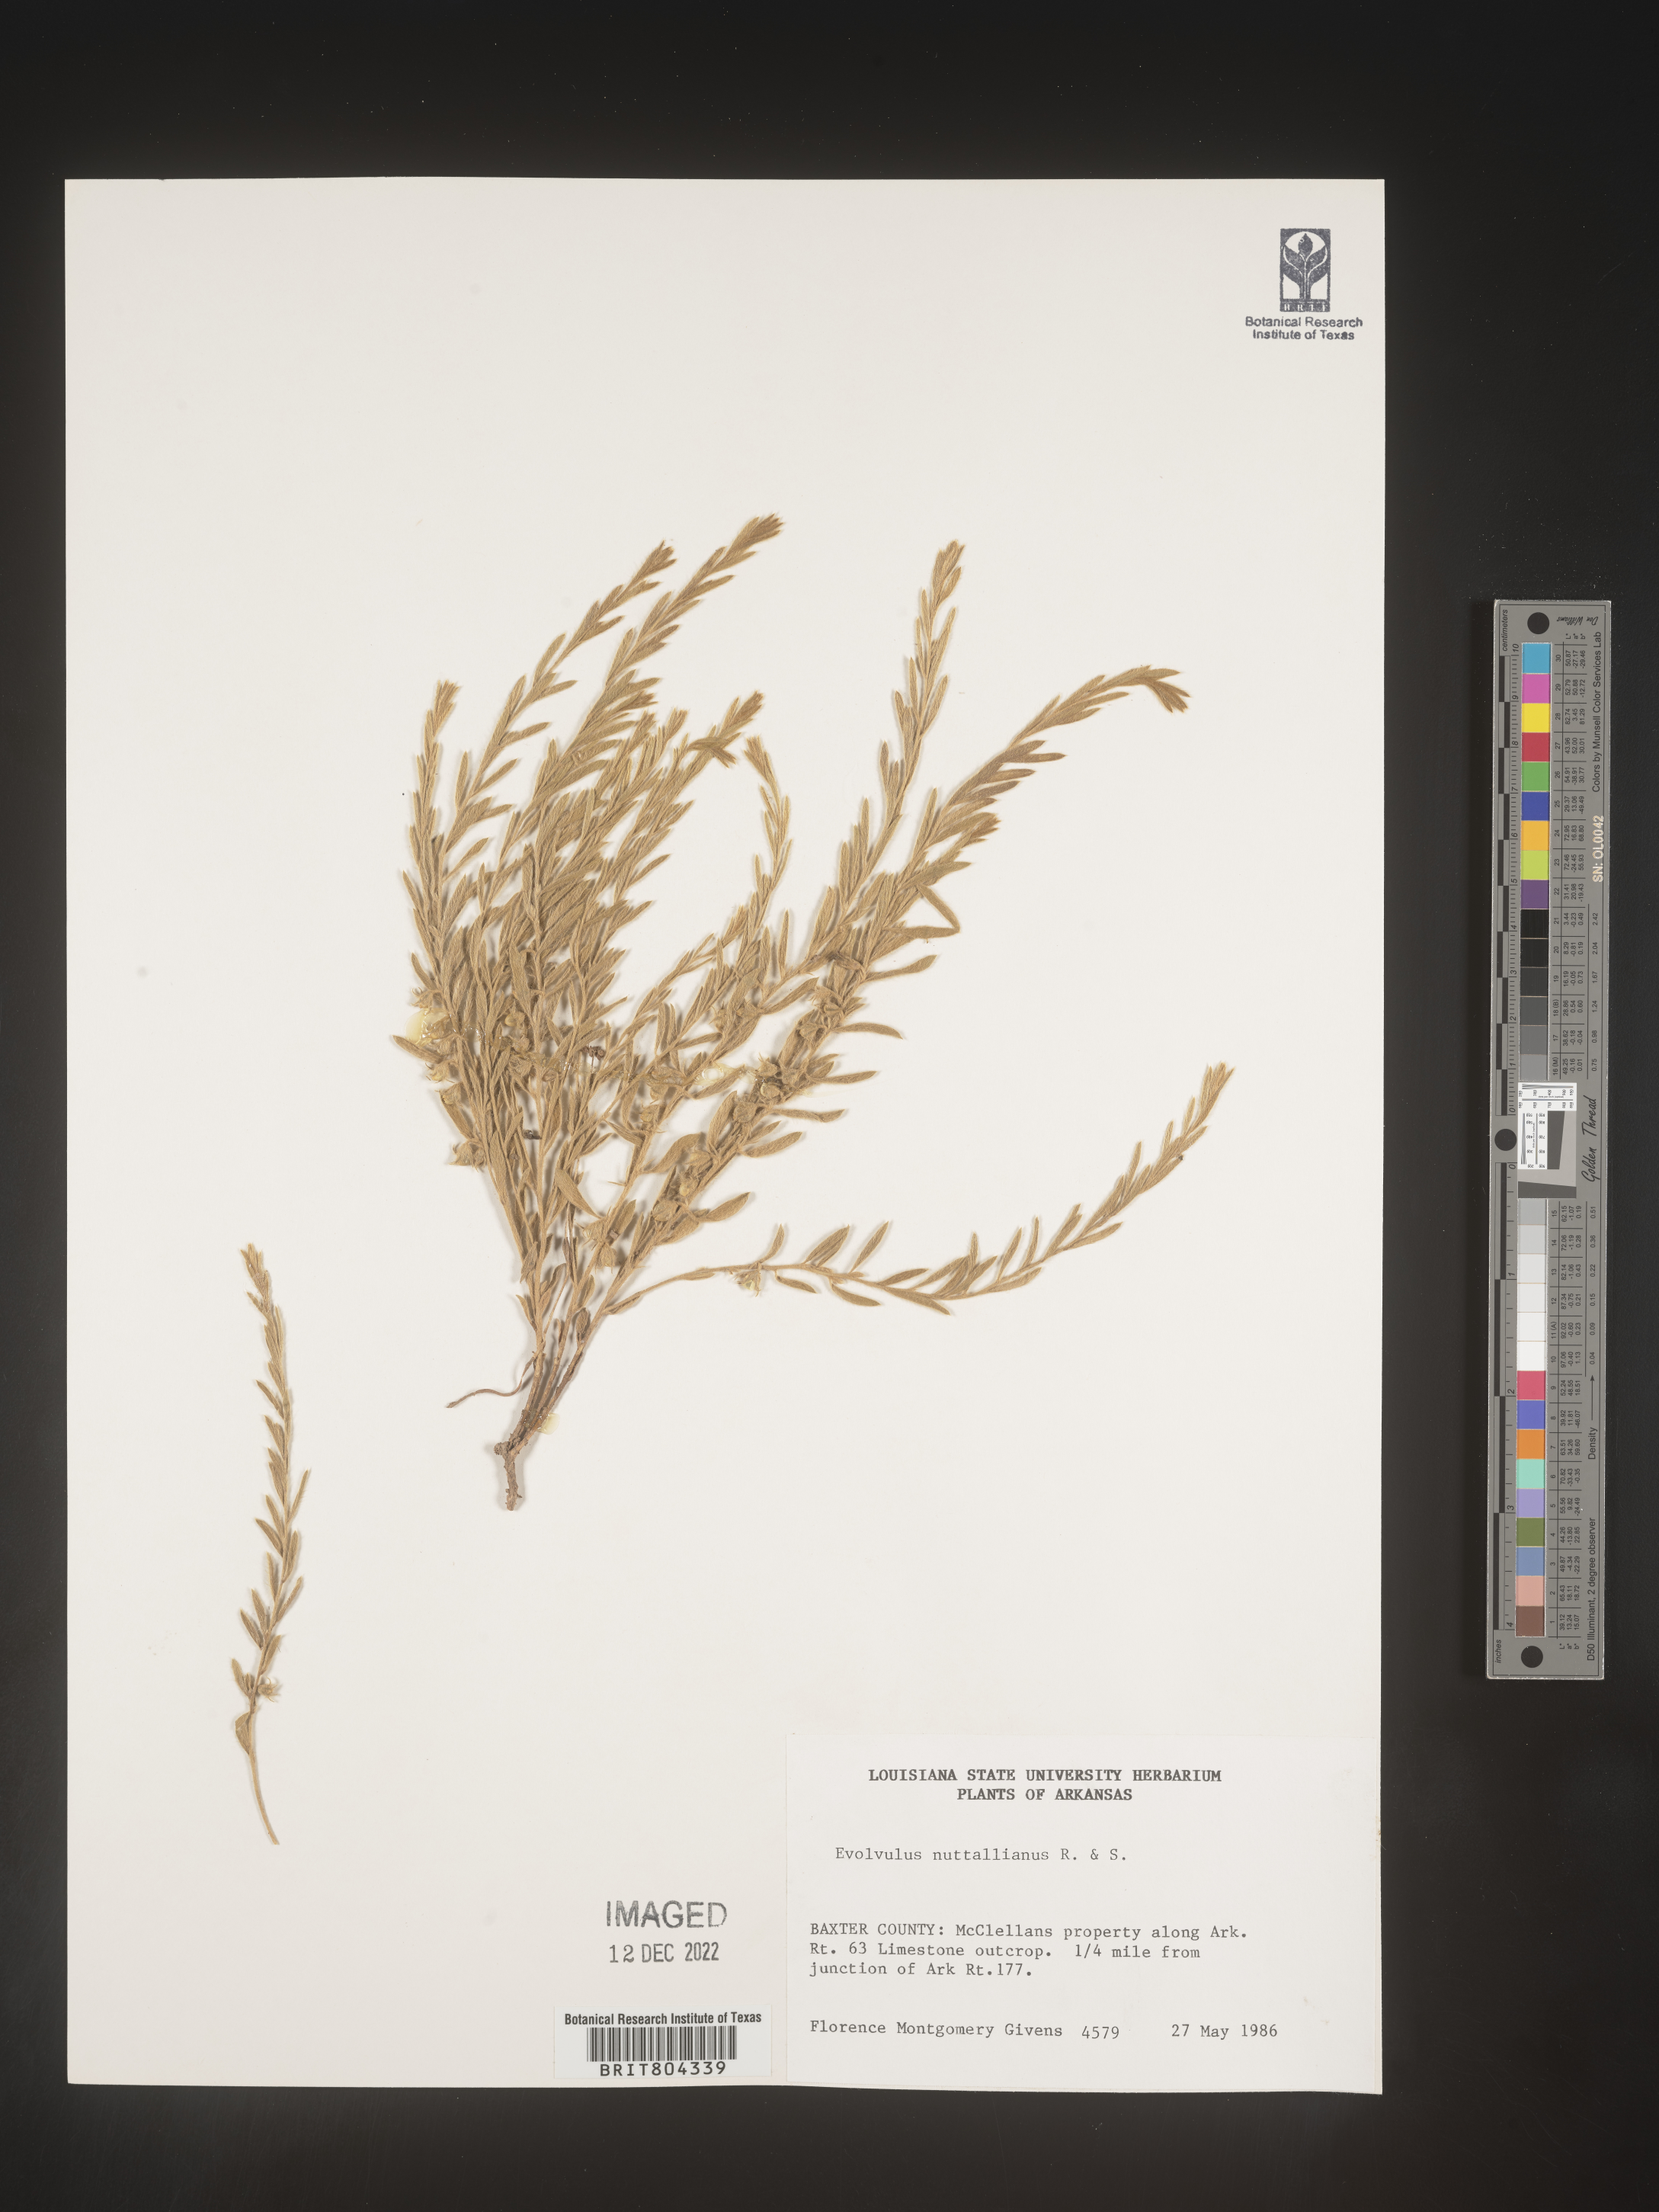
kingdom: Plantae
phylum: Tracheophyta
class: Magnoliopsida
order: Solanales
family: Convolvulaceae
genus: Evolvulus
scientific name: Evolvulus nuttallianus
